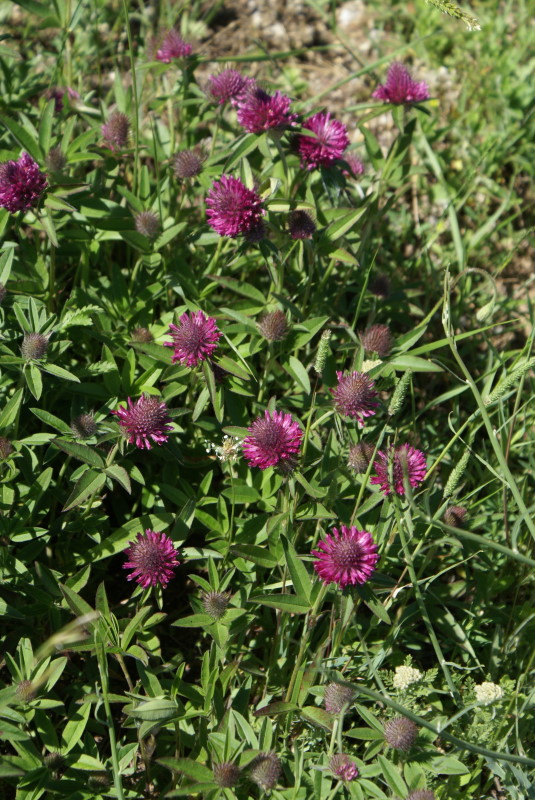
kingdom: Plantae
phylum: Tracheophyta
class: Magnoliopsida
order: Fabales
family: Fabaceae
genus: Trifolium
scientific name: Trifolium alpestre
